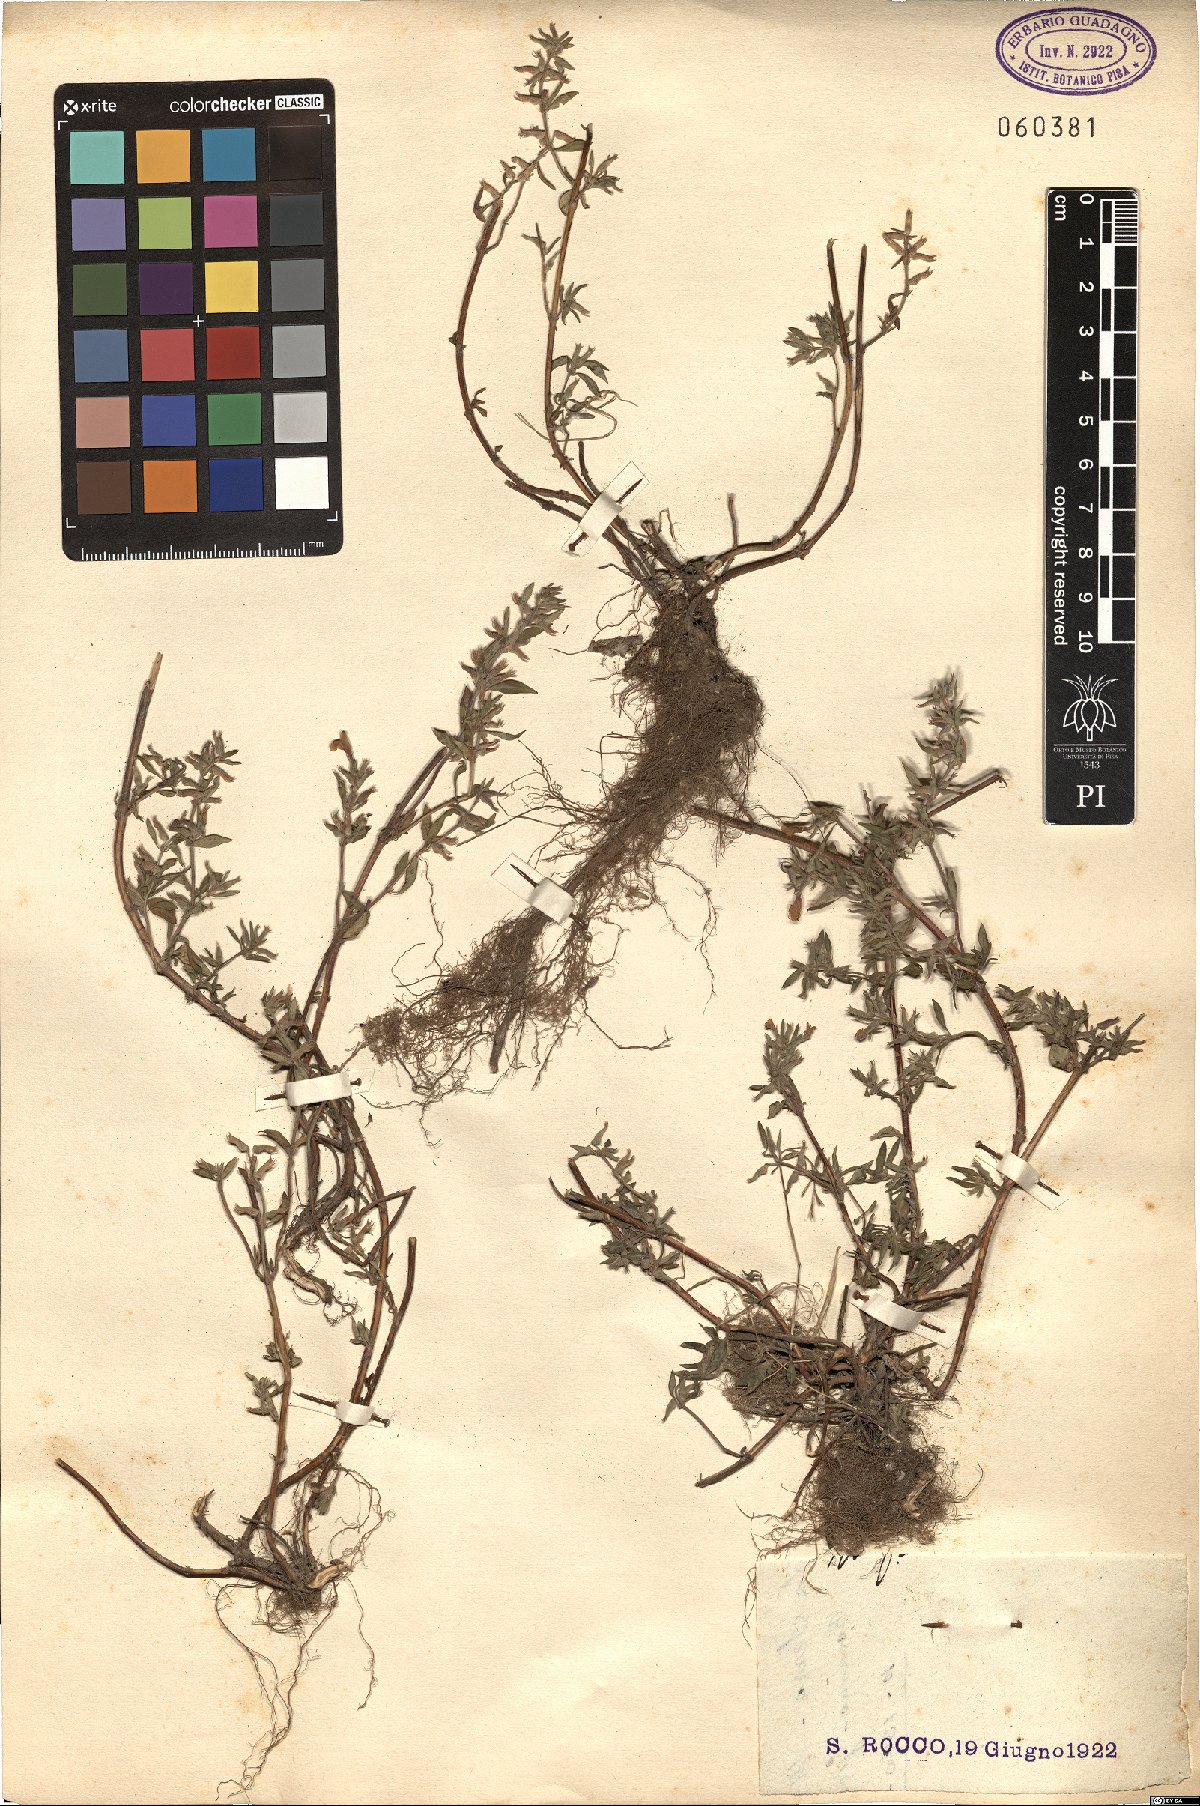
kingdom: Plantae
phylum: Tracheophyta
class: Magnoliopsida
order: Lamiales
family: Lamiaceae
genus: Ziziphora
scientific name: Ziziphora
